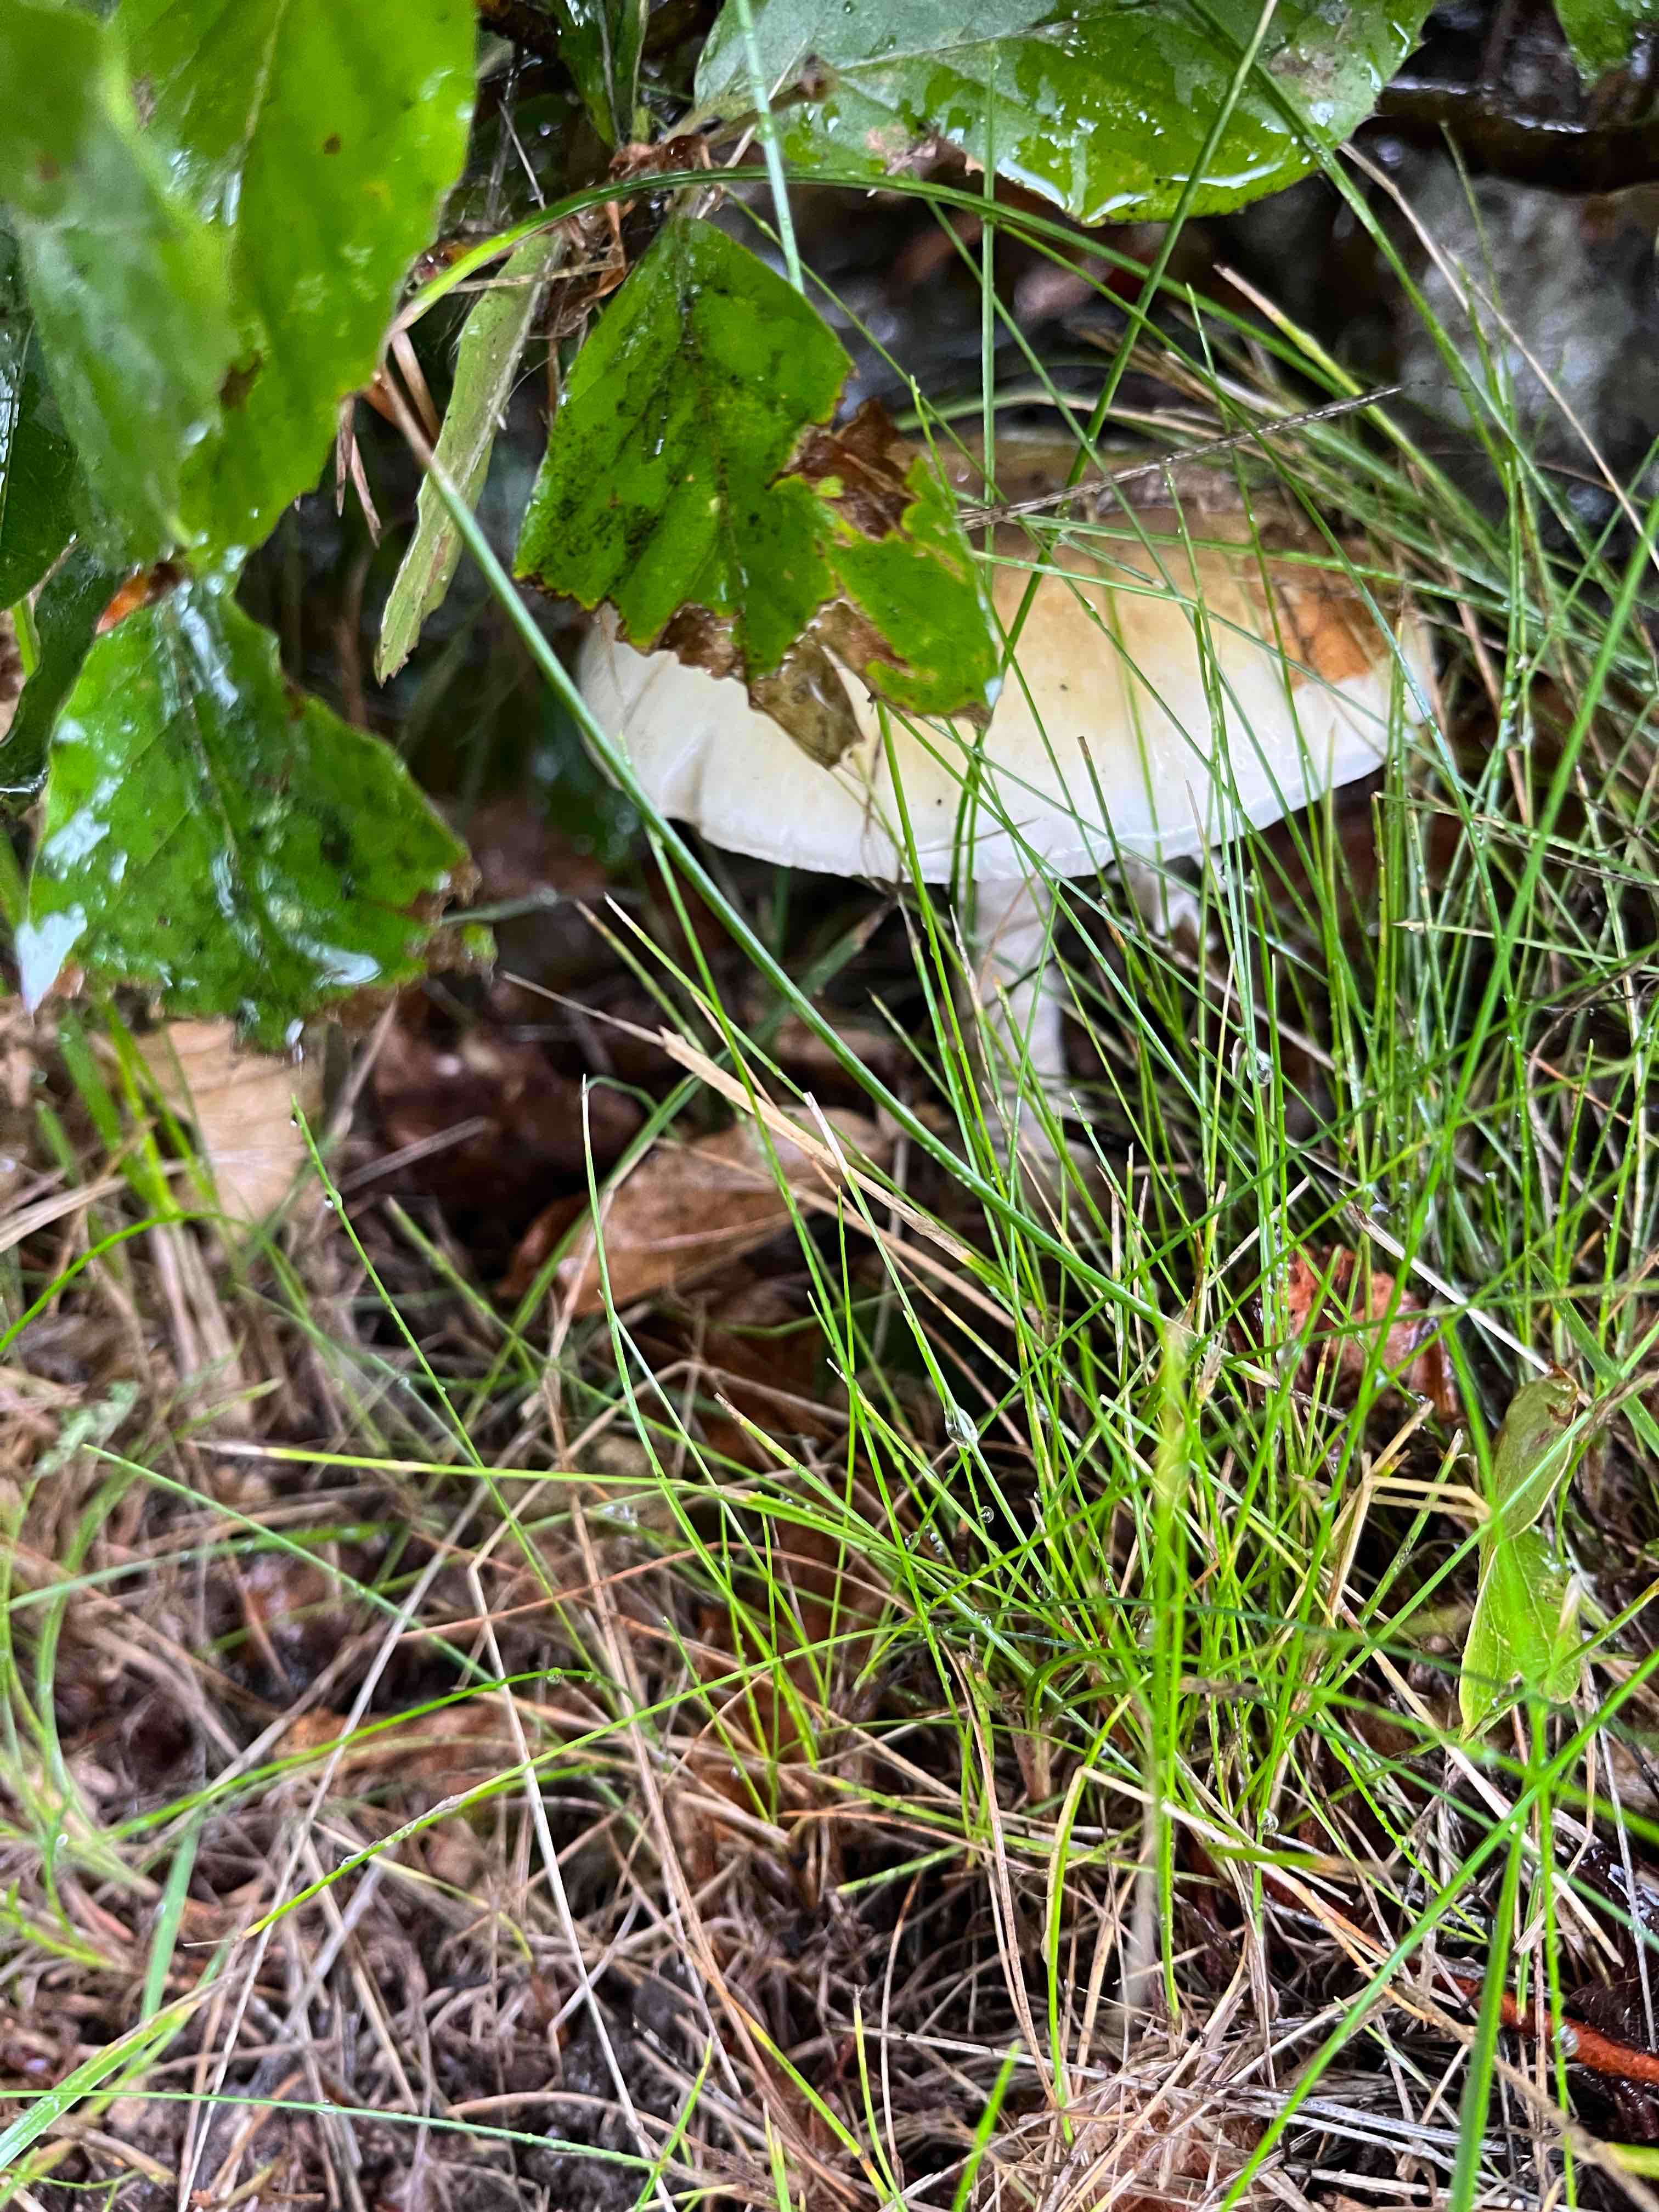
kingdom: Fungi
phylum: Basidiomycota
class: Agaricomycetes
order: Agaricales
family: Amanitaceae
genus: Amanita
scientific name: Amanita phalloides
